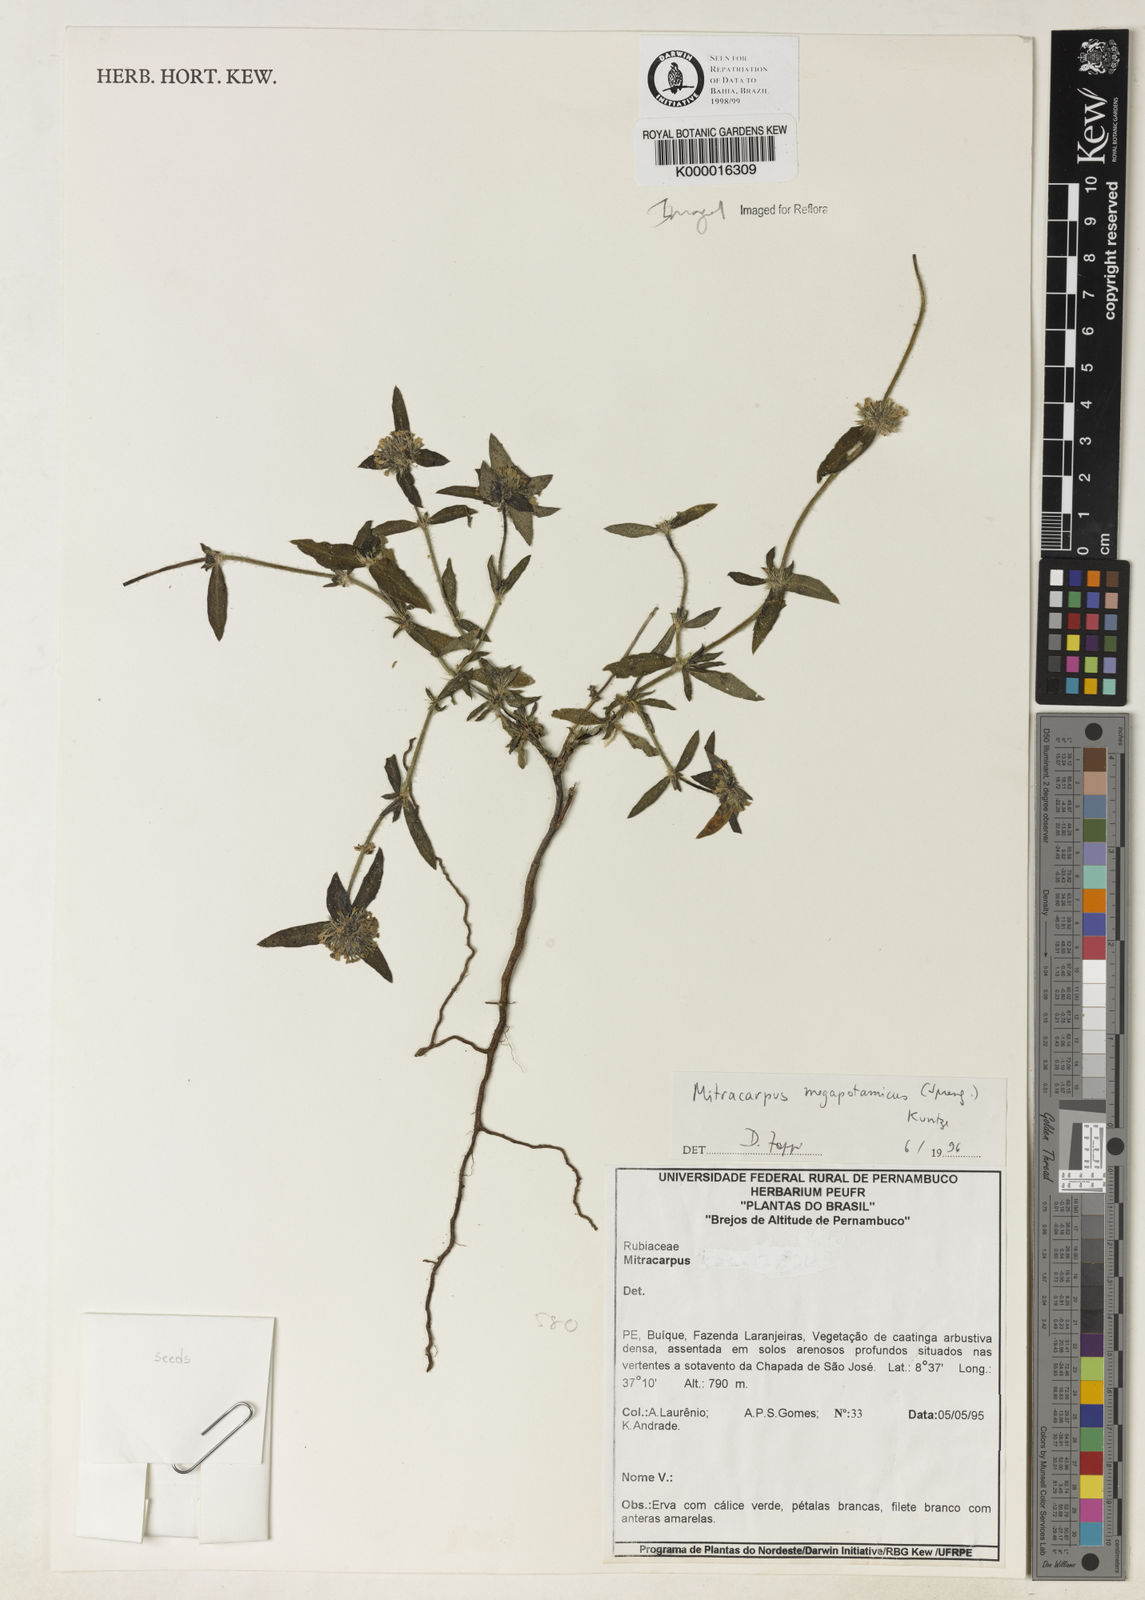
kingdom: Plantae
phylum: Tracheophyta
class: Magnoliopsida
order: Gentianales
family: Rubiaceae
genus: Mitracarpus
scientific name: Mitracarpus
